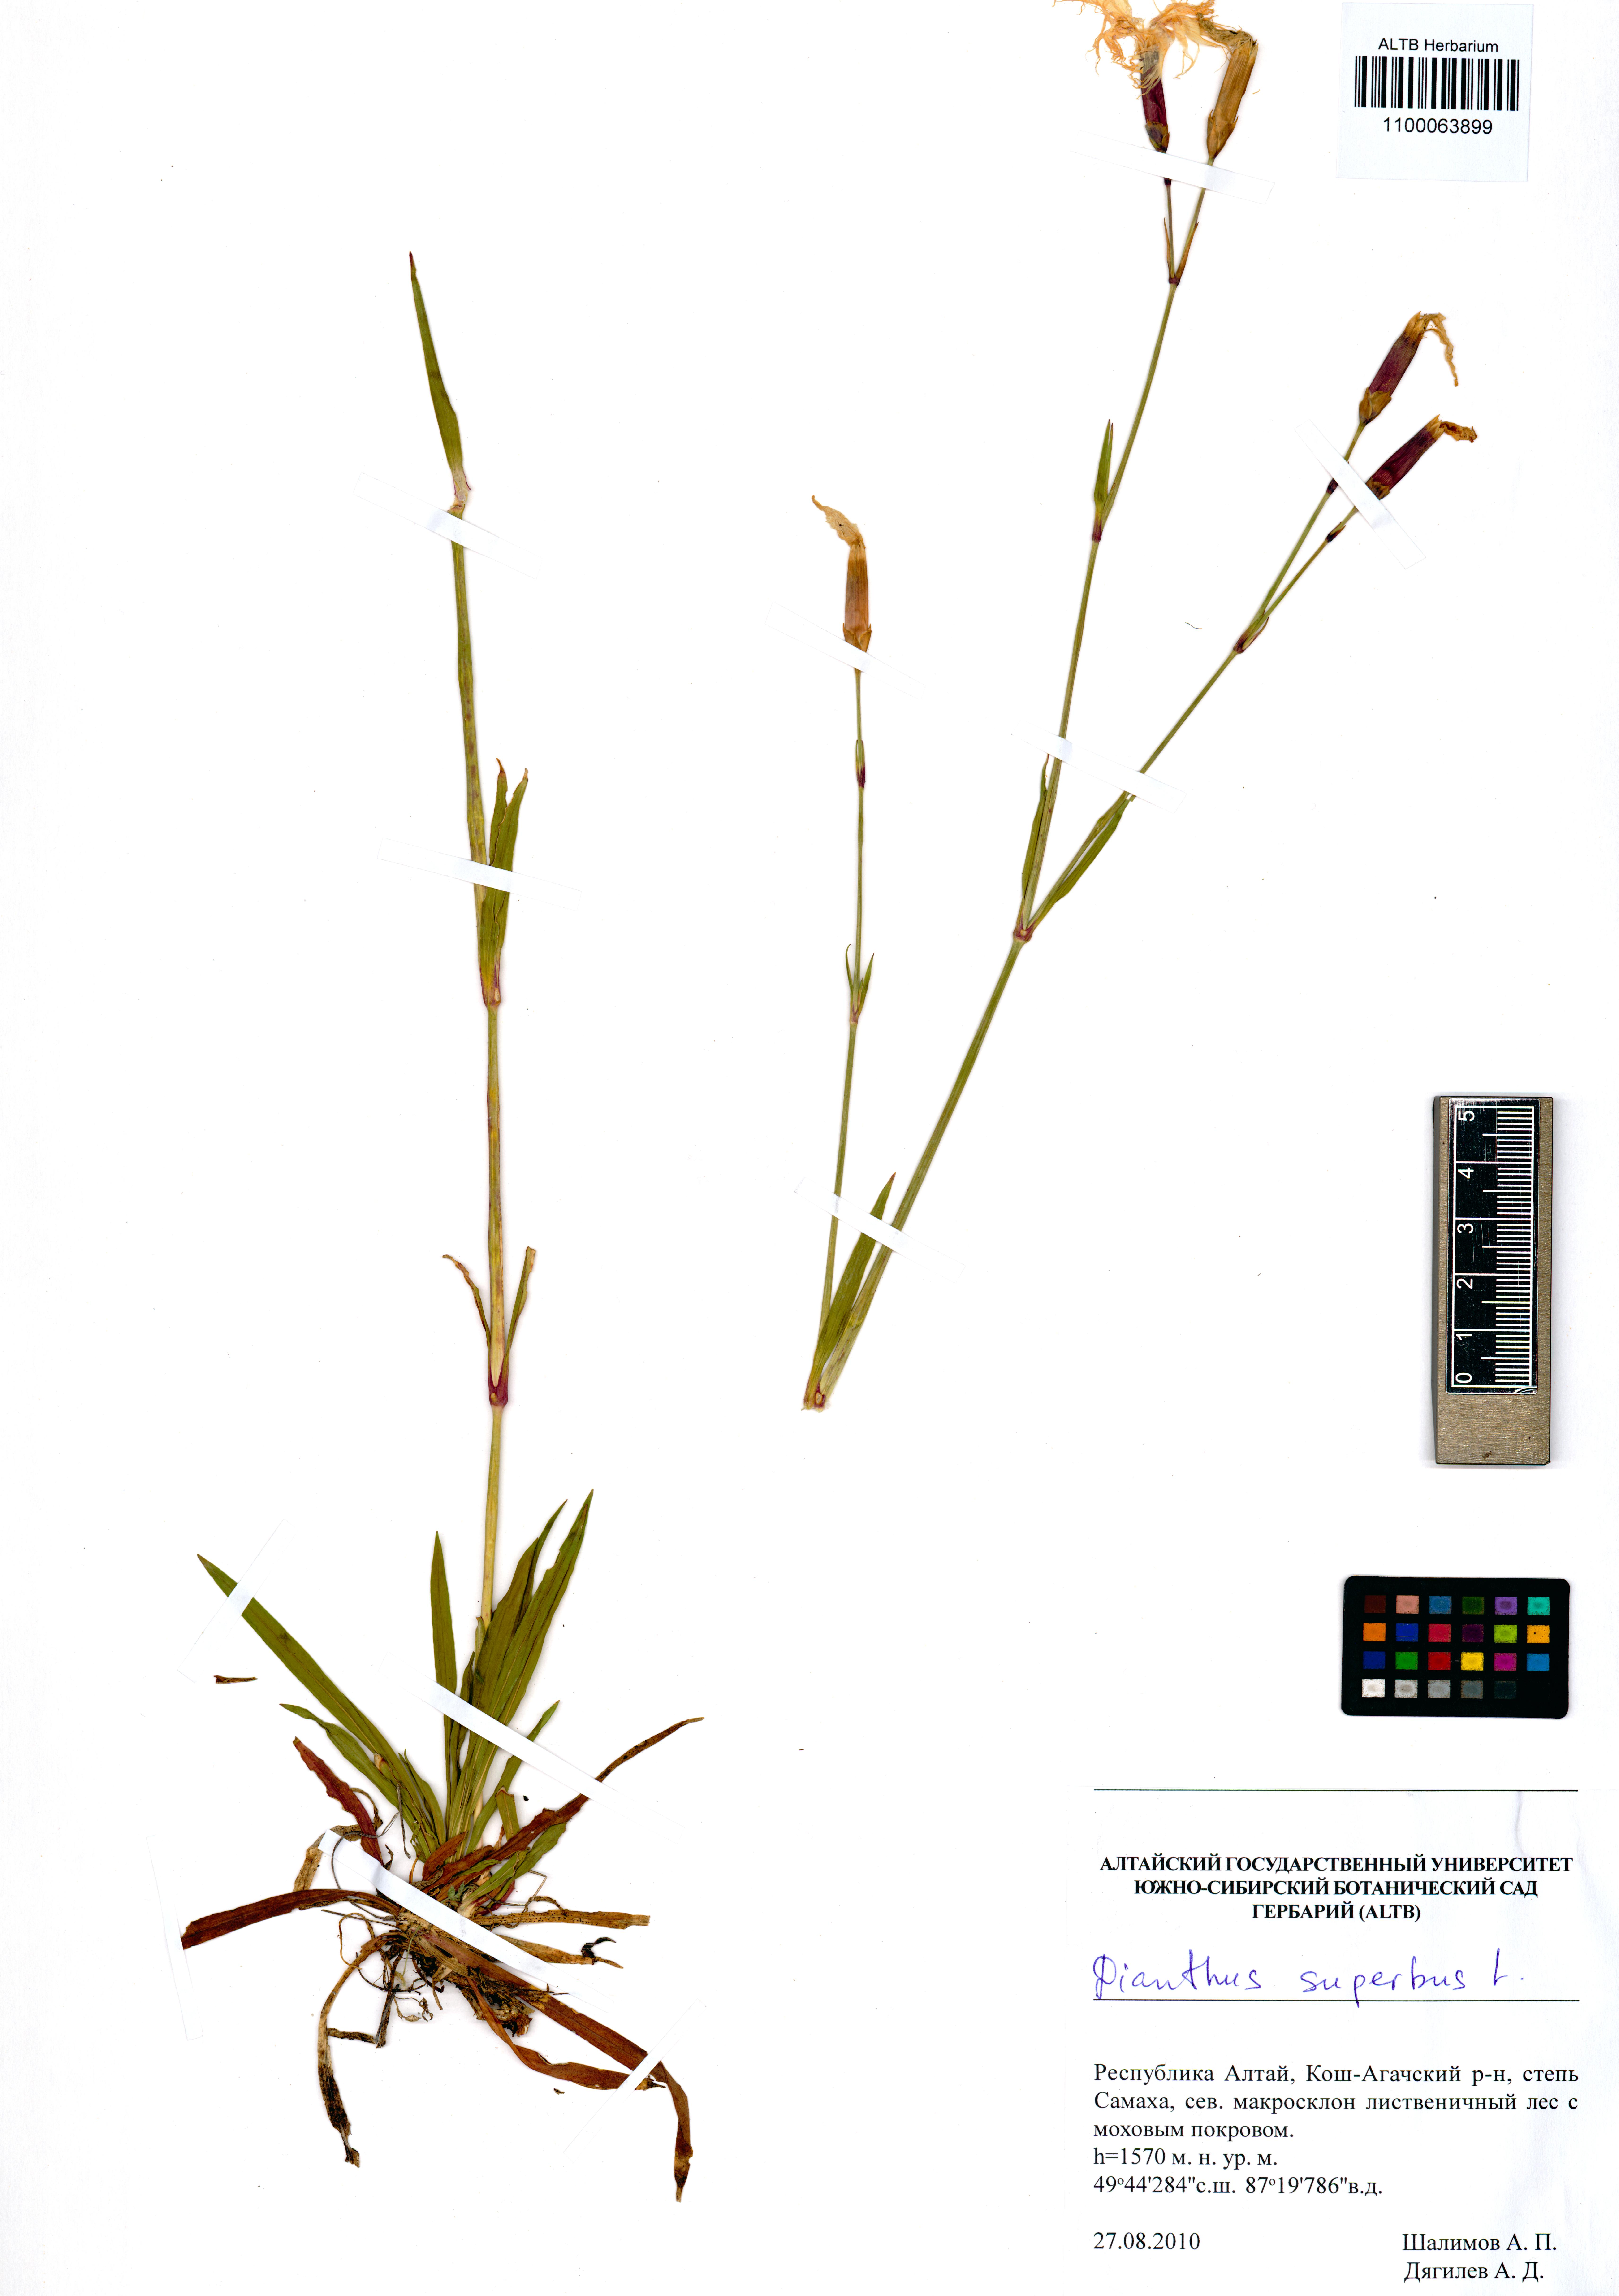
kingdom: Plantae
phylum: Tracheophyta
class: Magnoliopsida
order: Caryophyllales
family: Caryophyllaceae
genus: Dianthus
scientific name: Dianthus superbus
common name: Fringed pink
